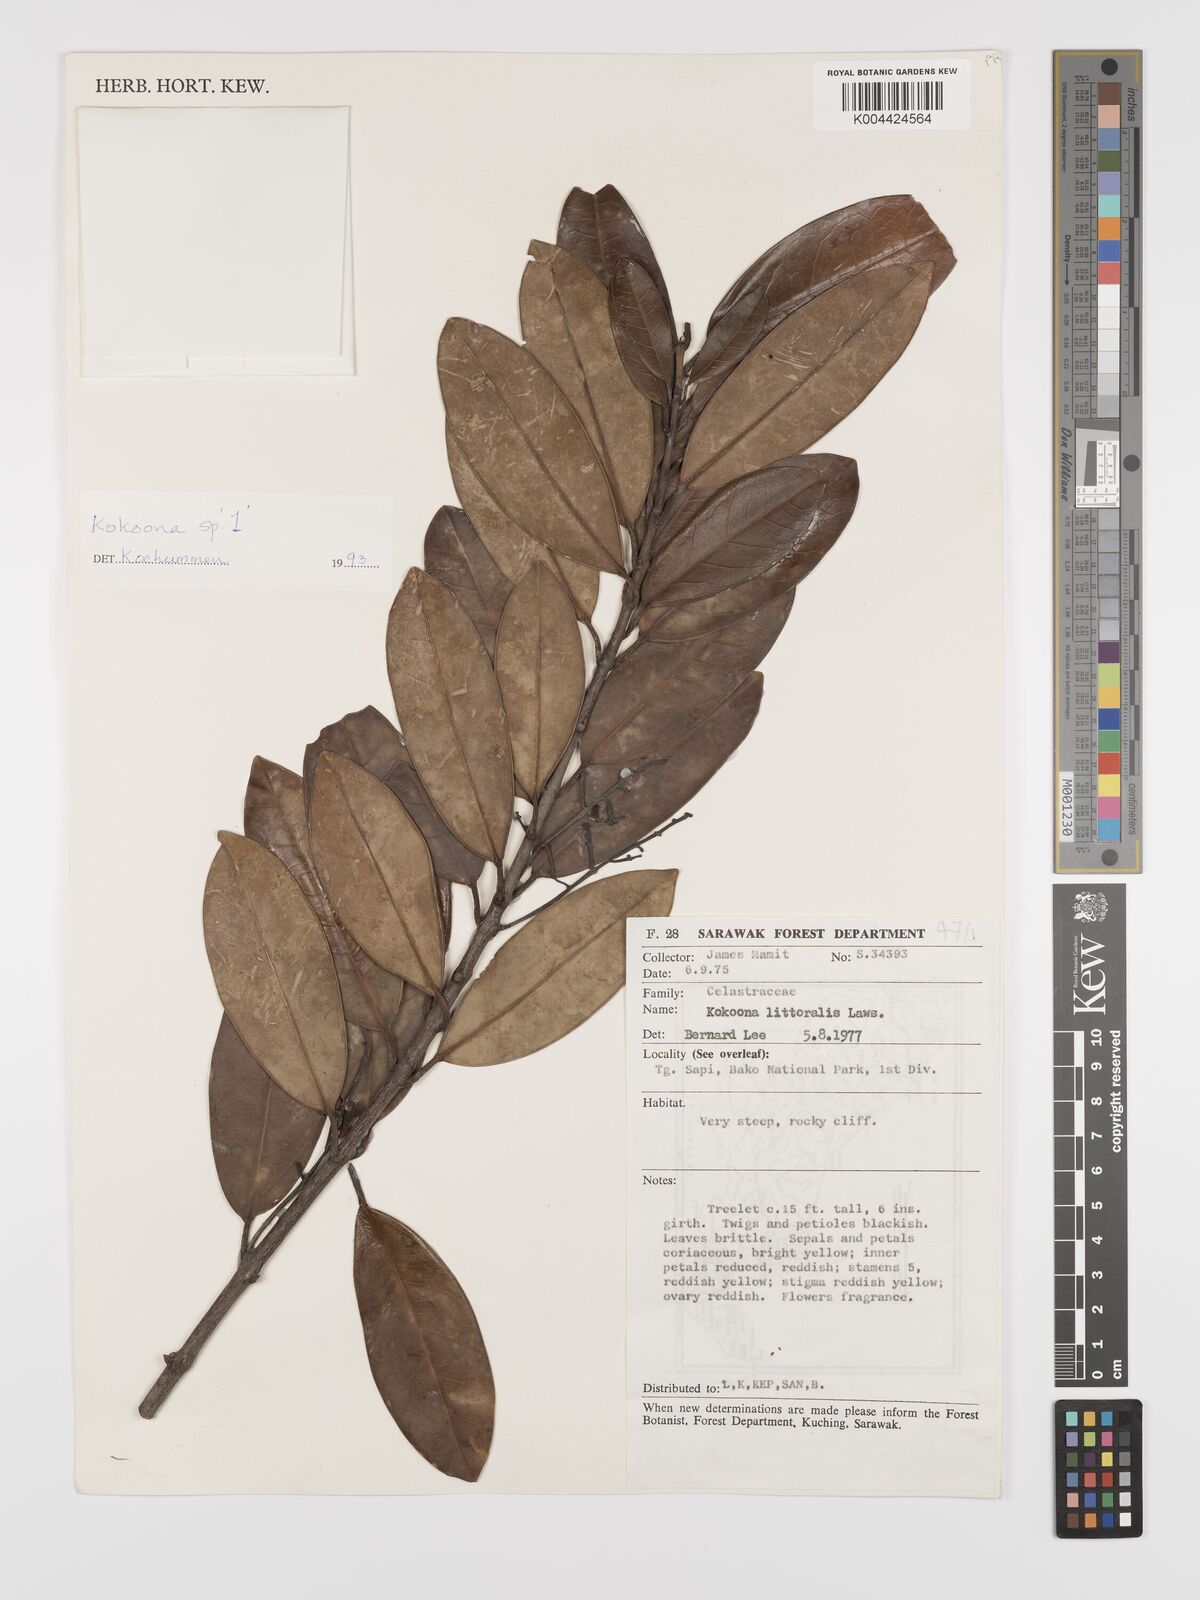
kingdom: Plantae
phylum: Tracheophyta
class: Magnoliopsida
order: Celastrales
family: Celastraceae
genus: Kokoona
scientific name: Kokoona littoralis
